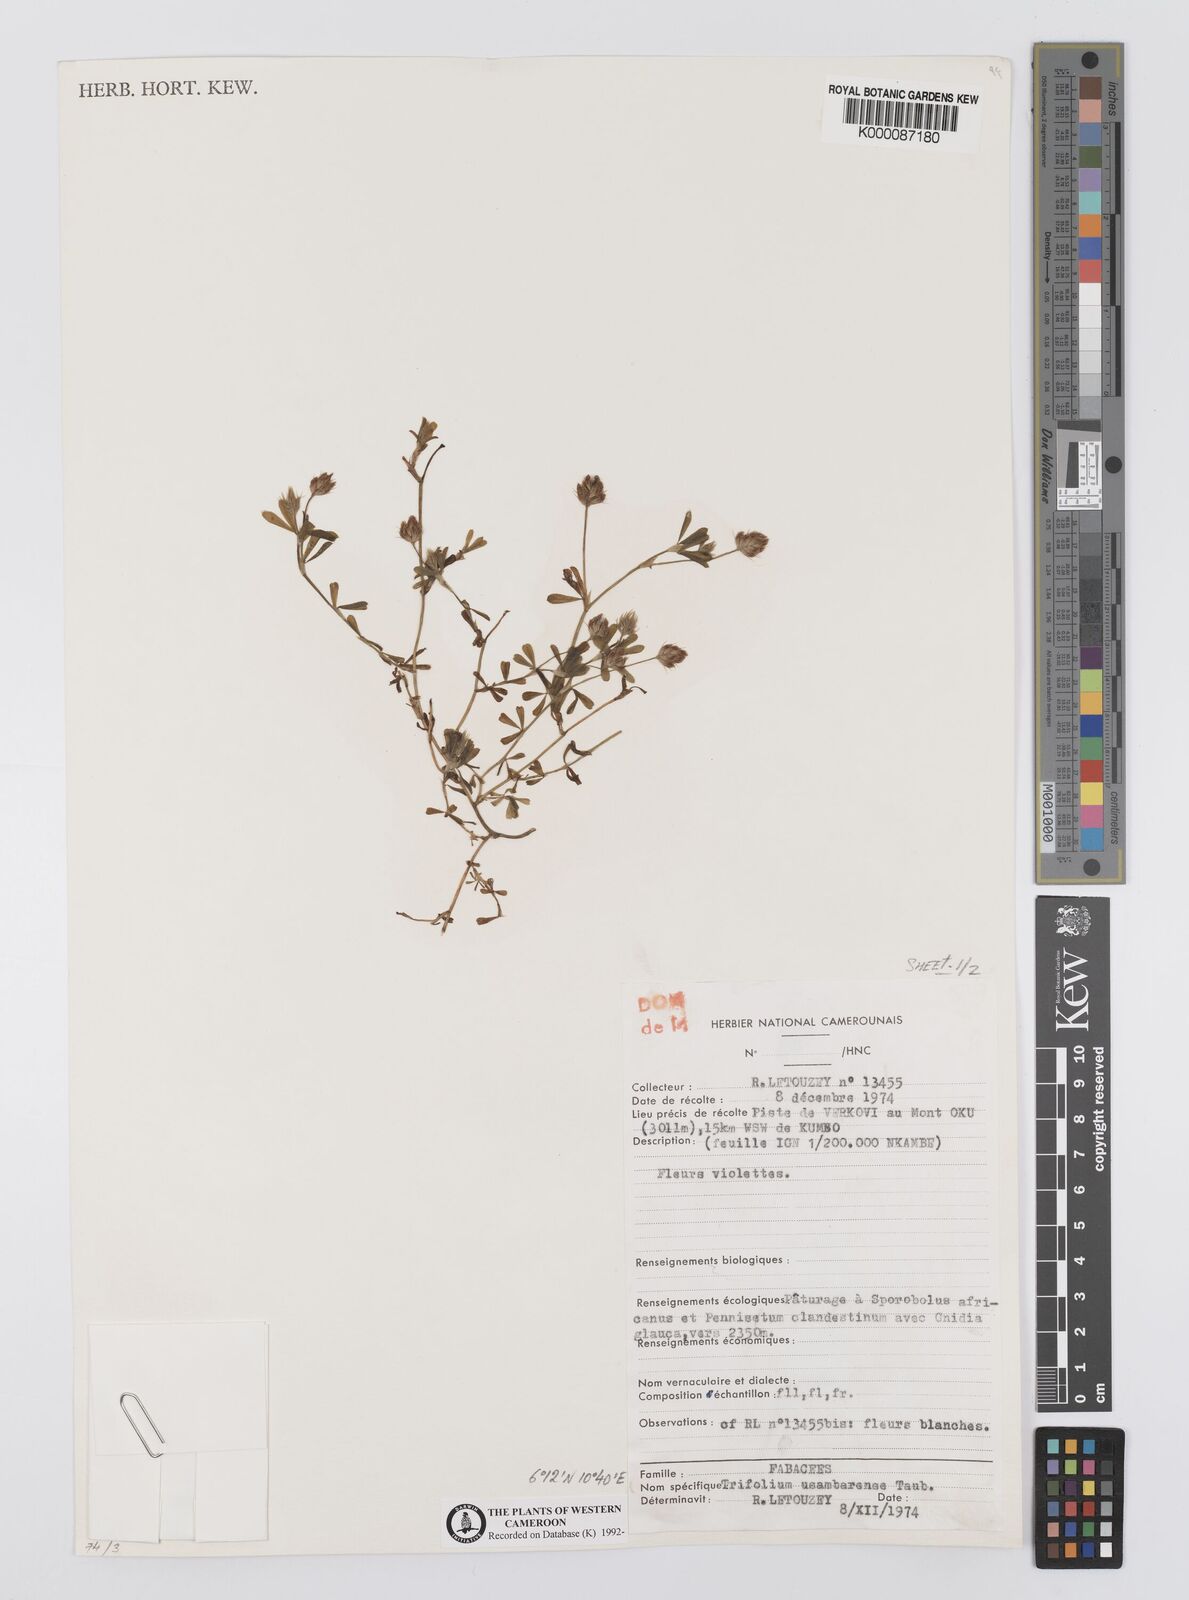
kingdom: Plantae
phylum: Tracheophyta
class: Magnoliopsida
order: Fabales
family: Fabaceae
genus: Trifolium
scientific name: Trifolium usambarense
